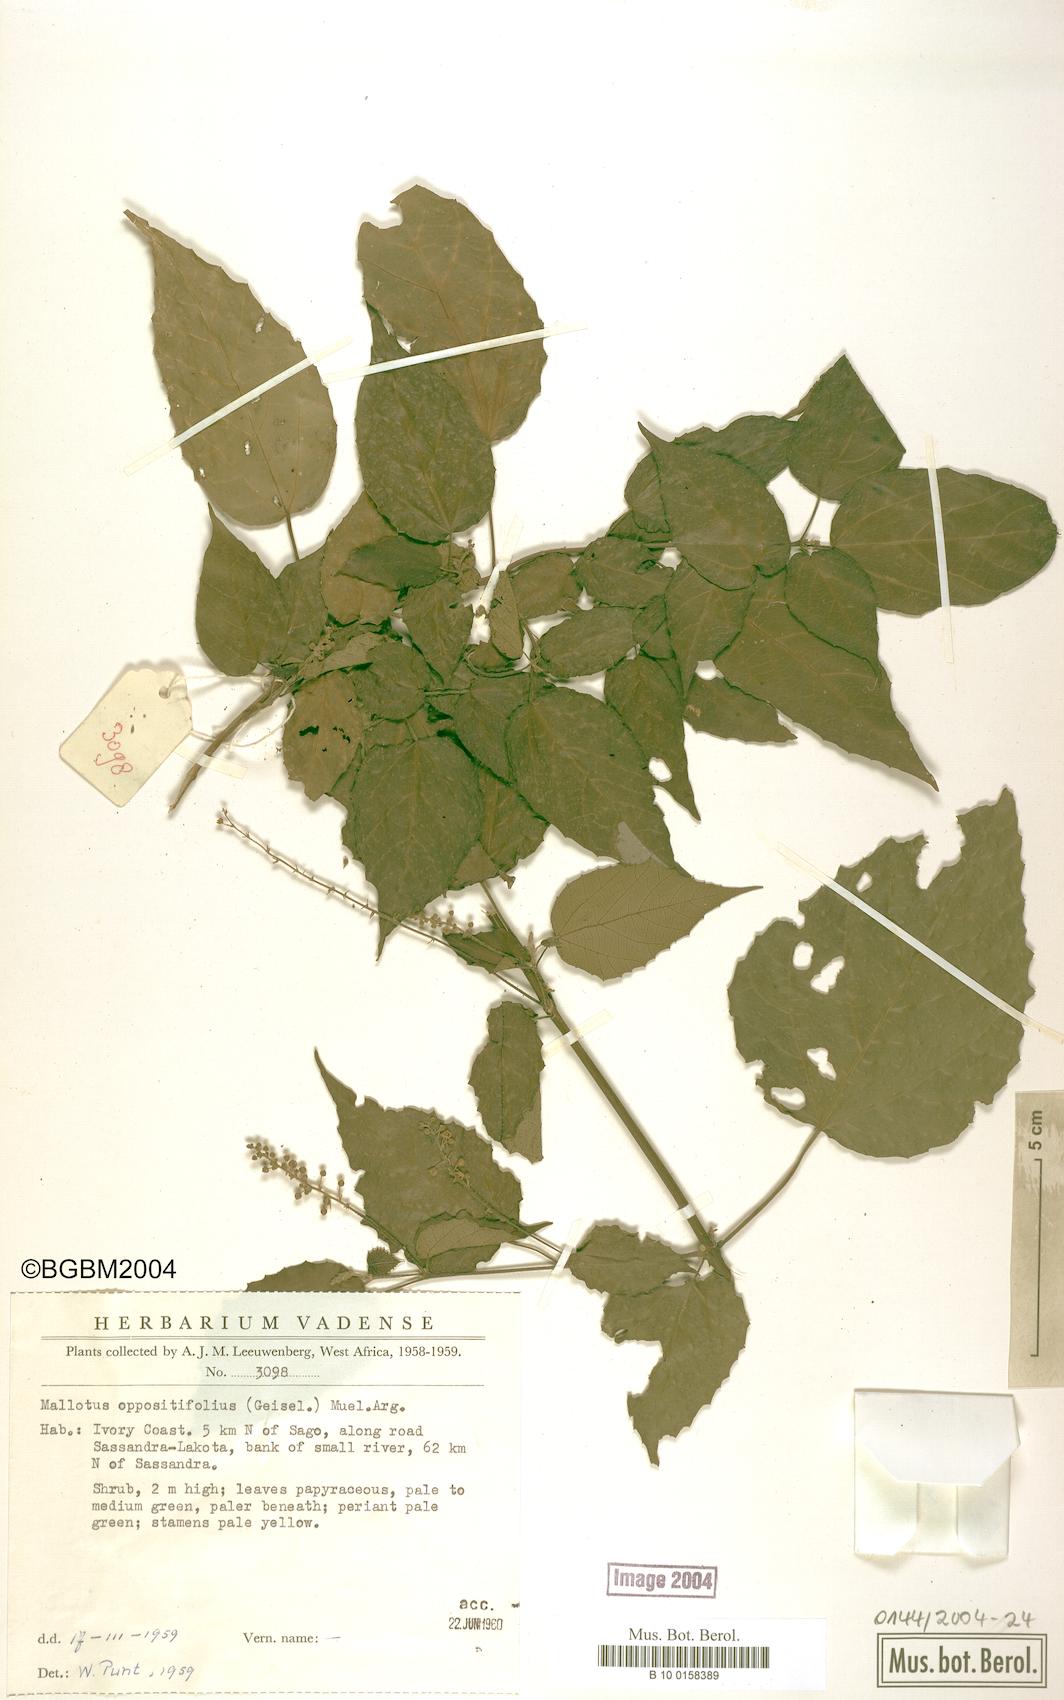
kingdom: Plantae
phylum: Tracheophyta
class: Magnoliopsida
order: Malpighiales
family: Euphorbiaceae
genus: Mallotus
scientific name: Mallotus oppositifolius
